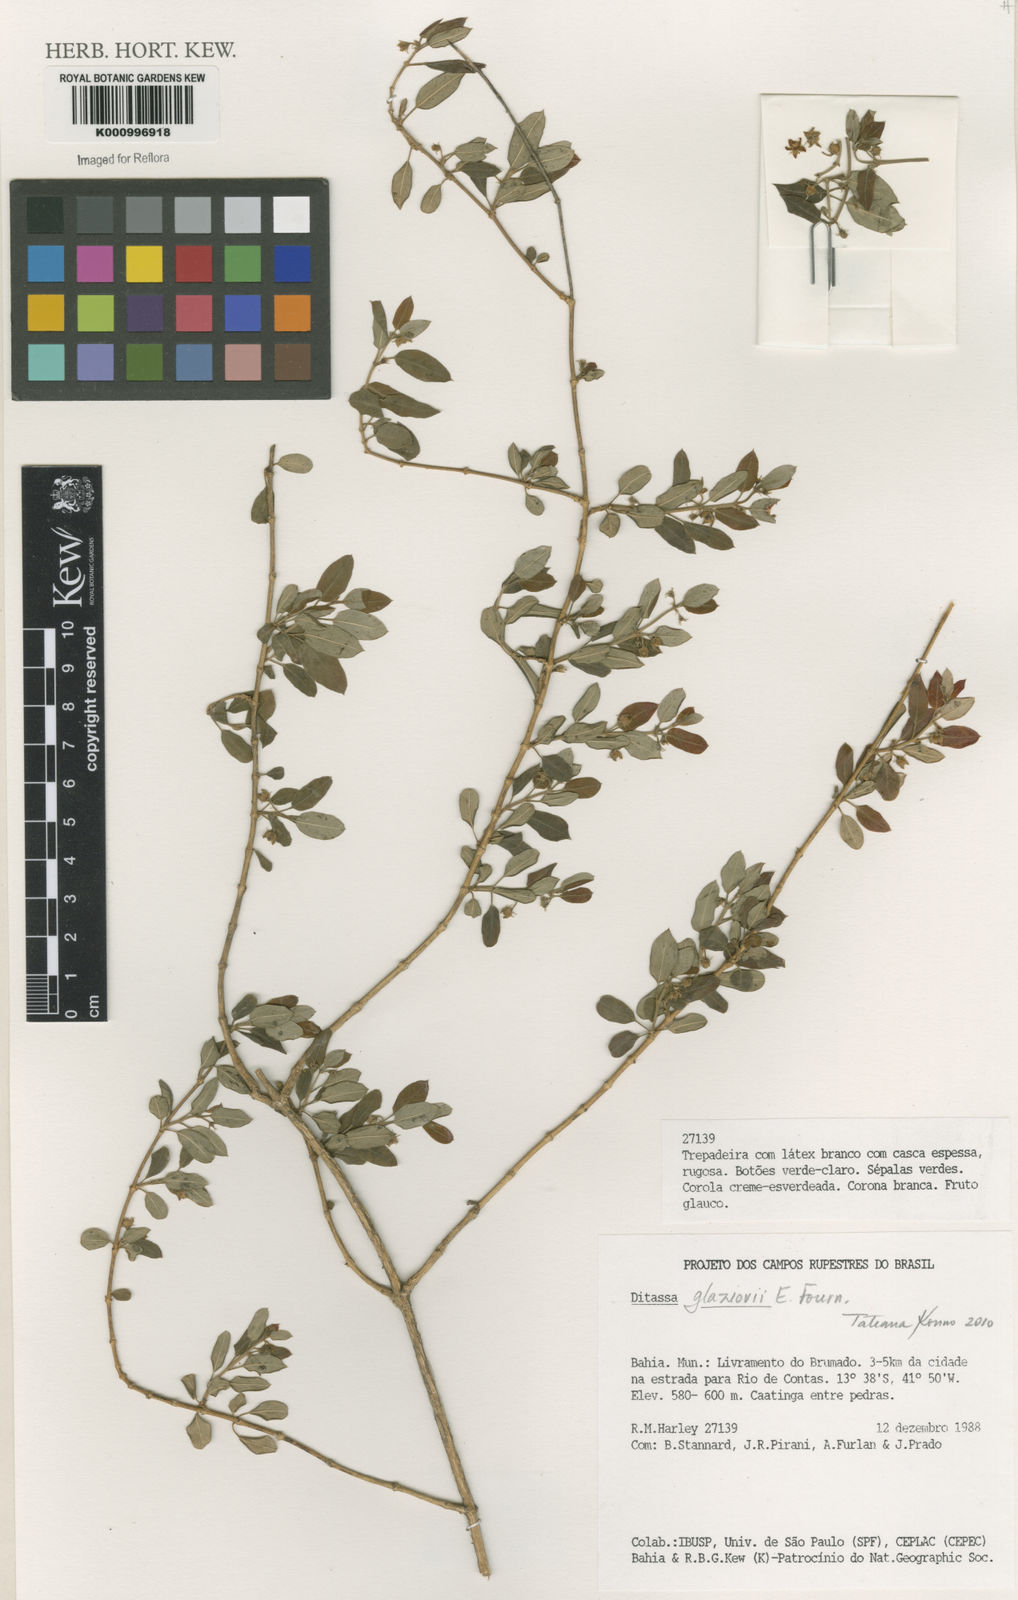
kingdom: Plantae
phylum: Tracheophyta
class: Magnoliopsida
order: Gentianales
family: Apocynaceae
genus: Ditassa
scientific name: Ditassa
